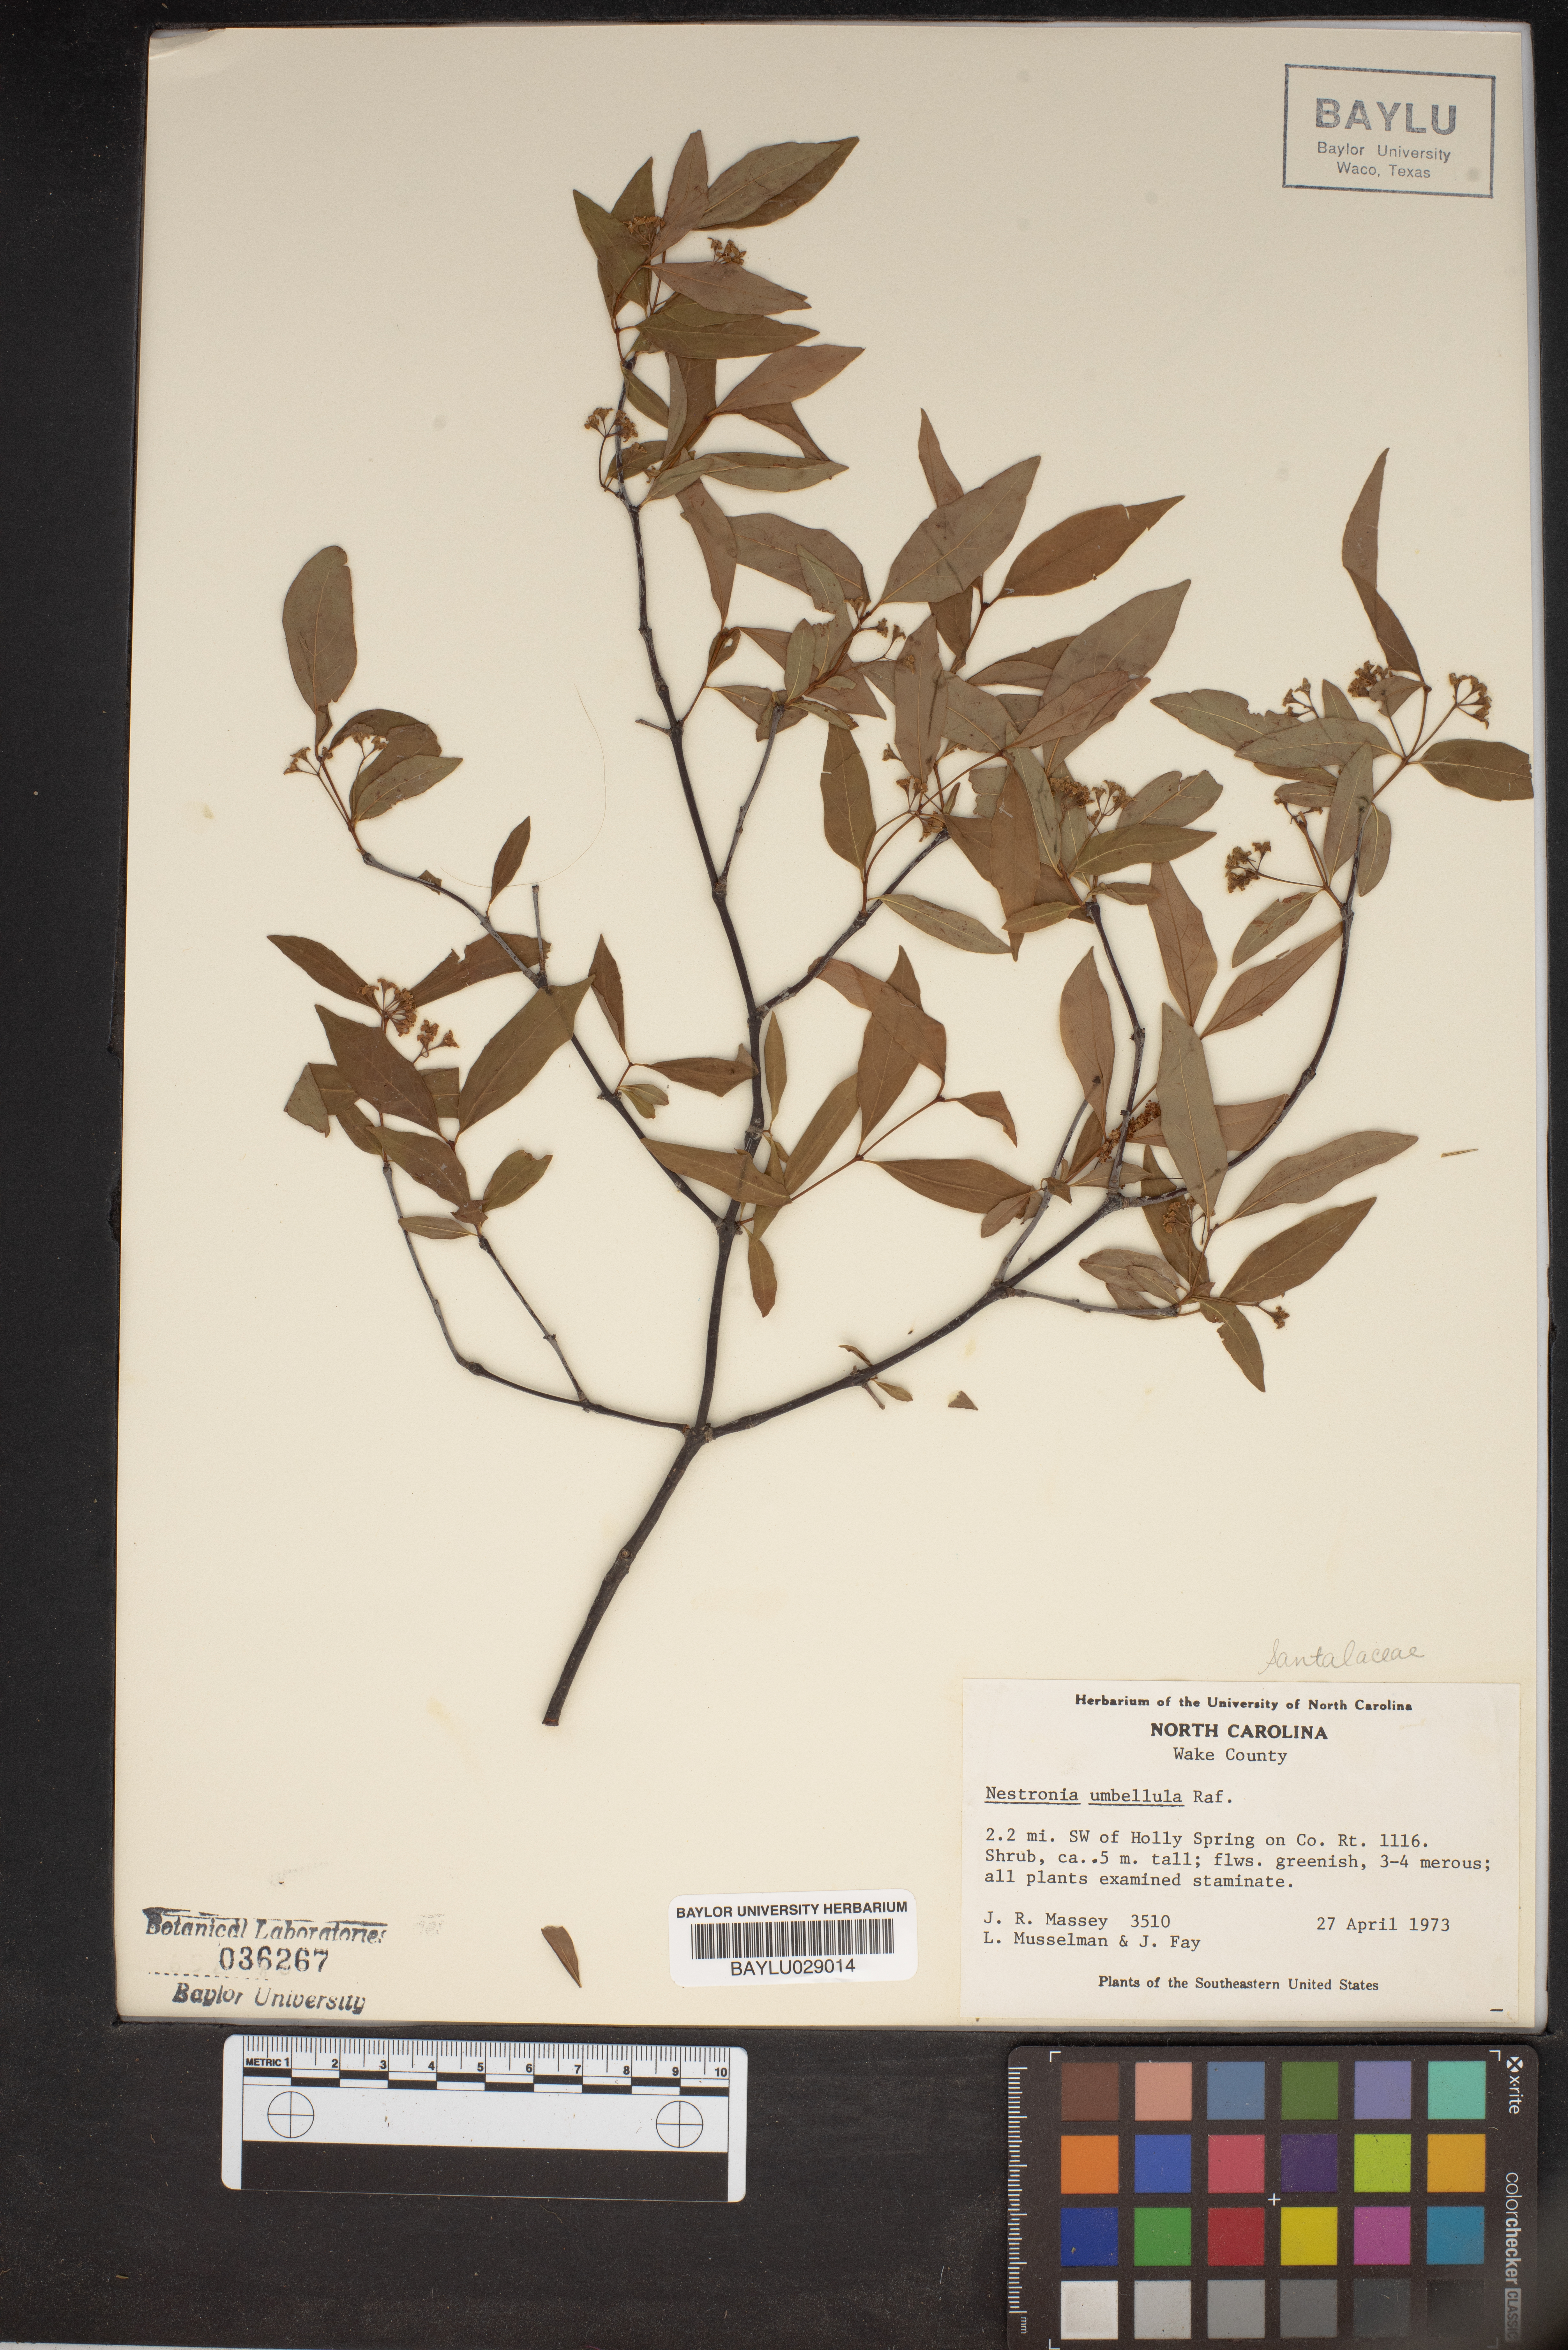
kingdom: Plantae
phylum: Tracheophyta
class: Magnoliopsida
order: Santalales
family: Santalaceae
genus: Nestronia
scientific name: Nestronia umbellula
